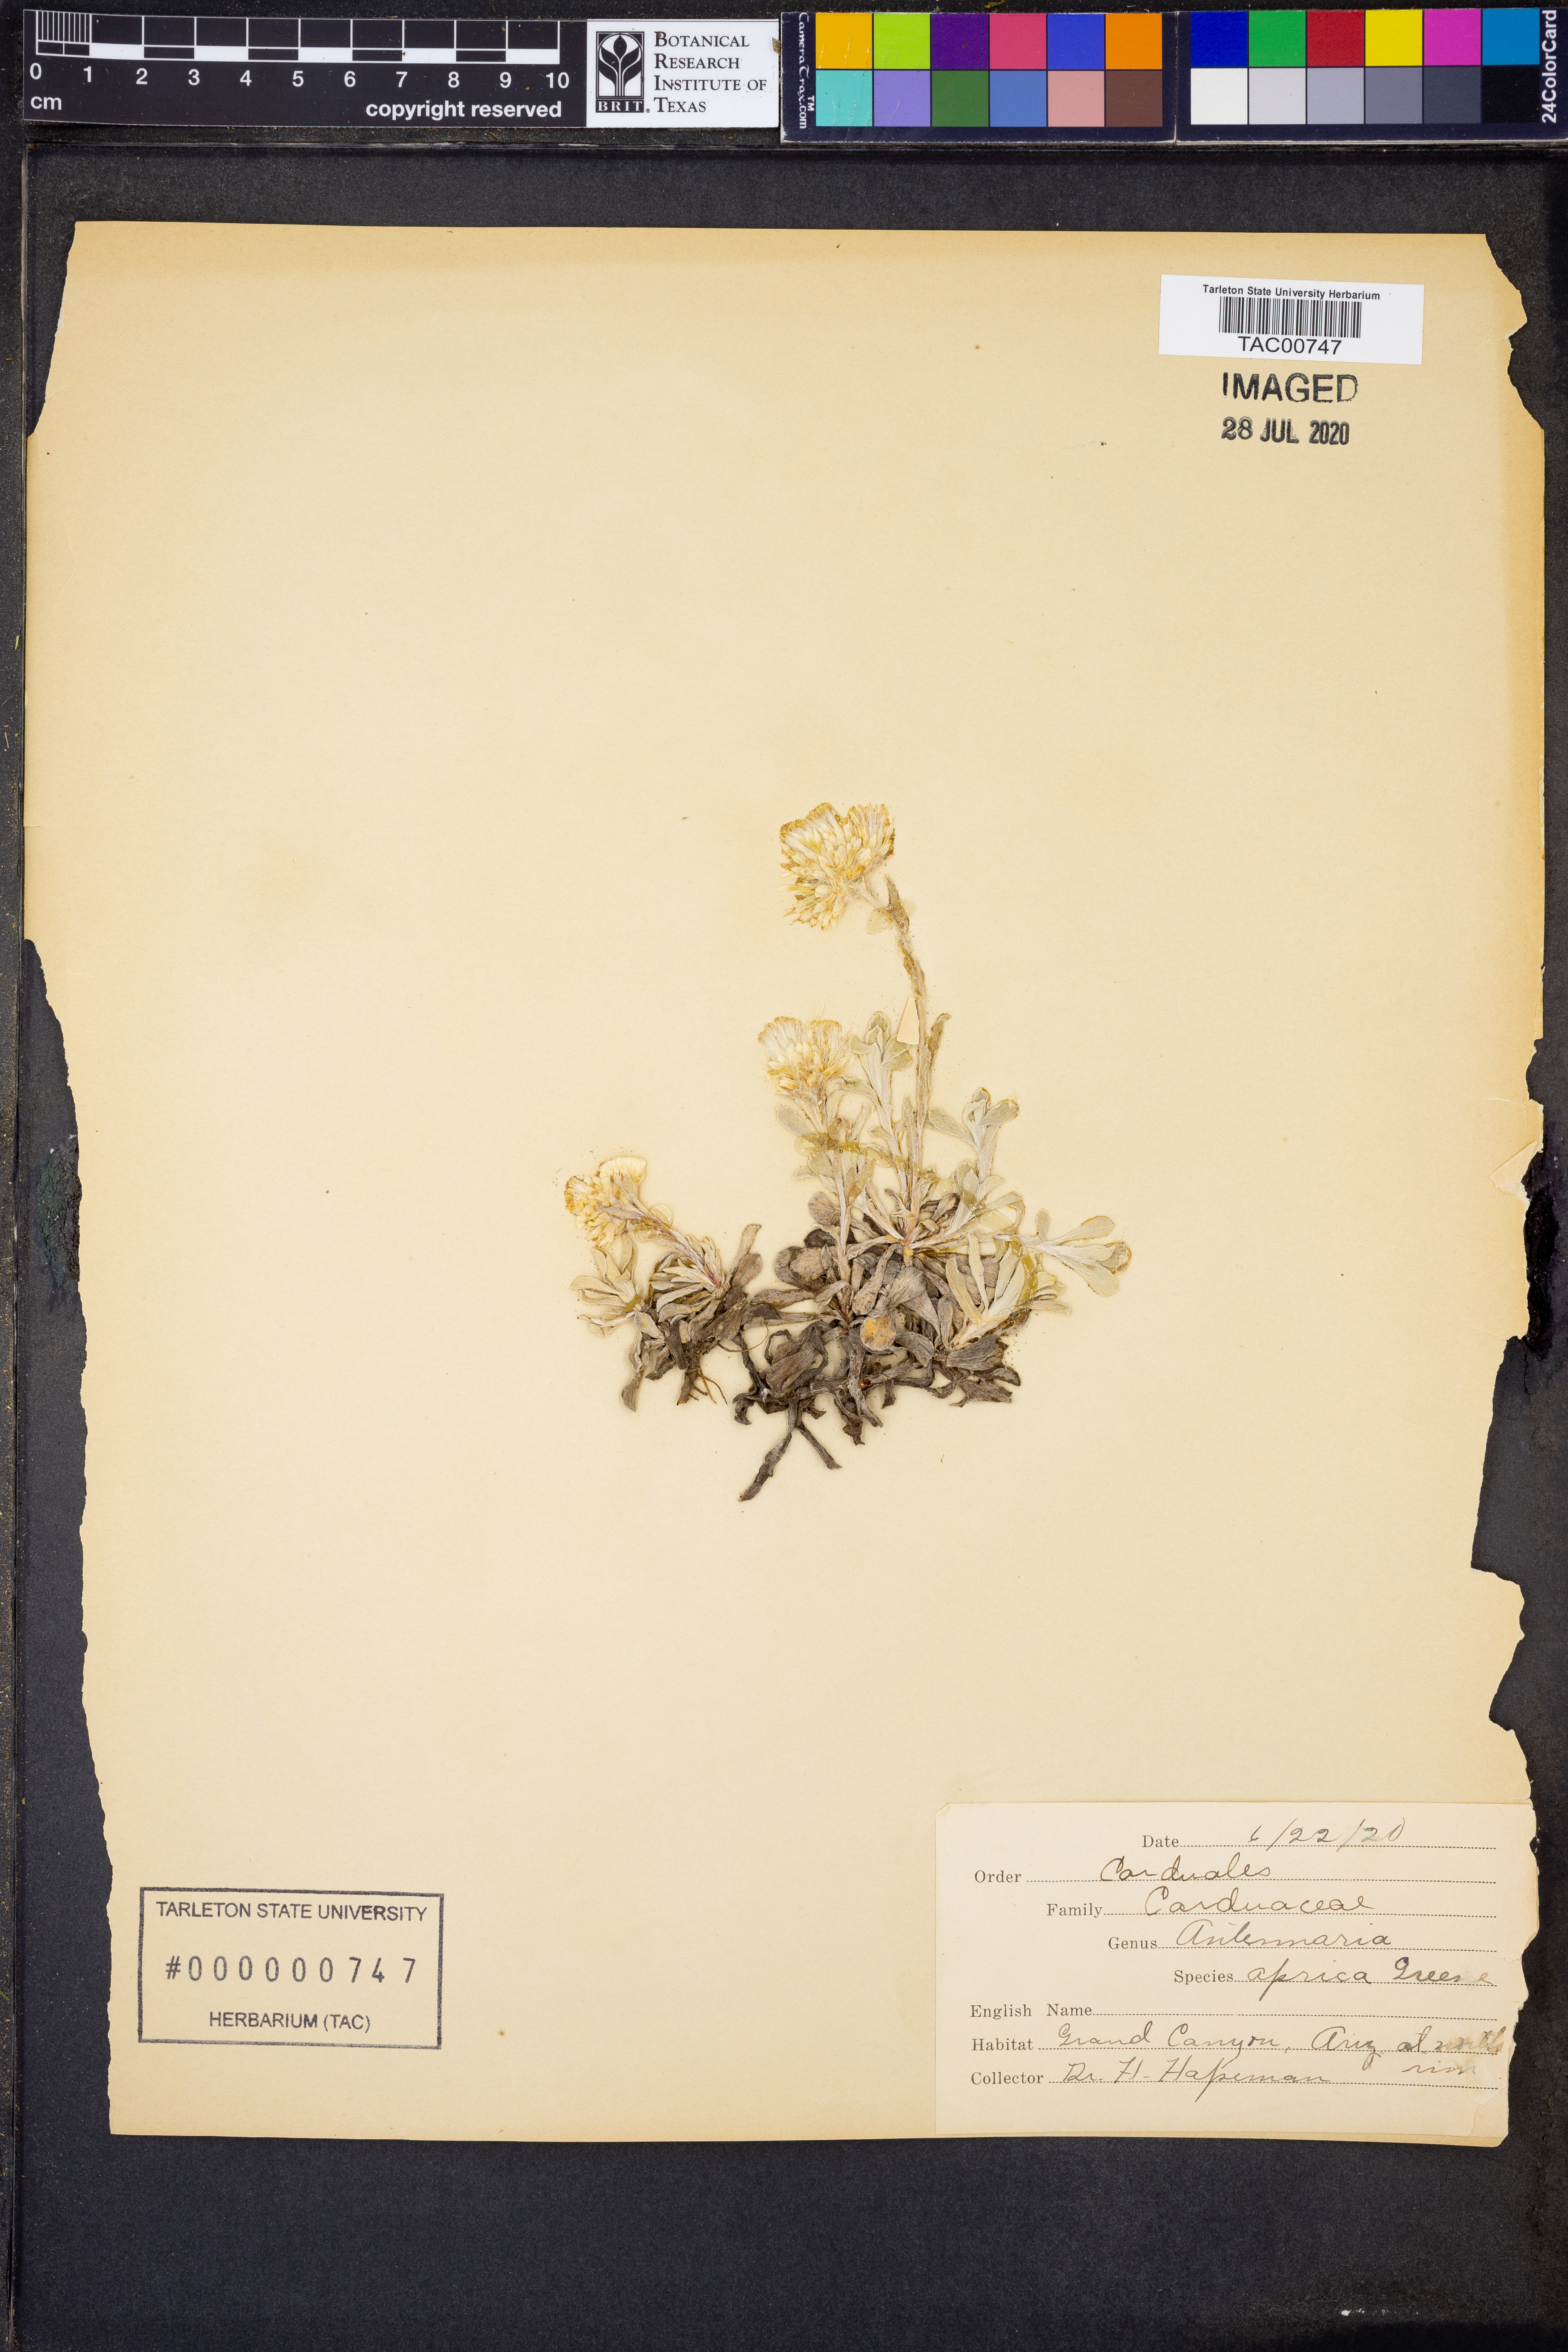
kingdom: Plantae
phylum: Tracheophyta
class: Magnoliopsida
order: Asterales
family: Asteraceae
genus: Antennaria
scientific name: Antennaria parvifolia
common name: Nuttall's pussytoes
